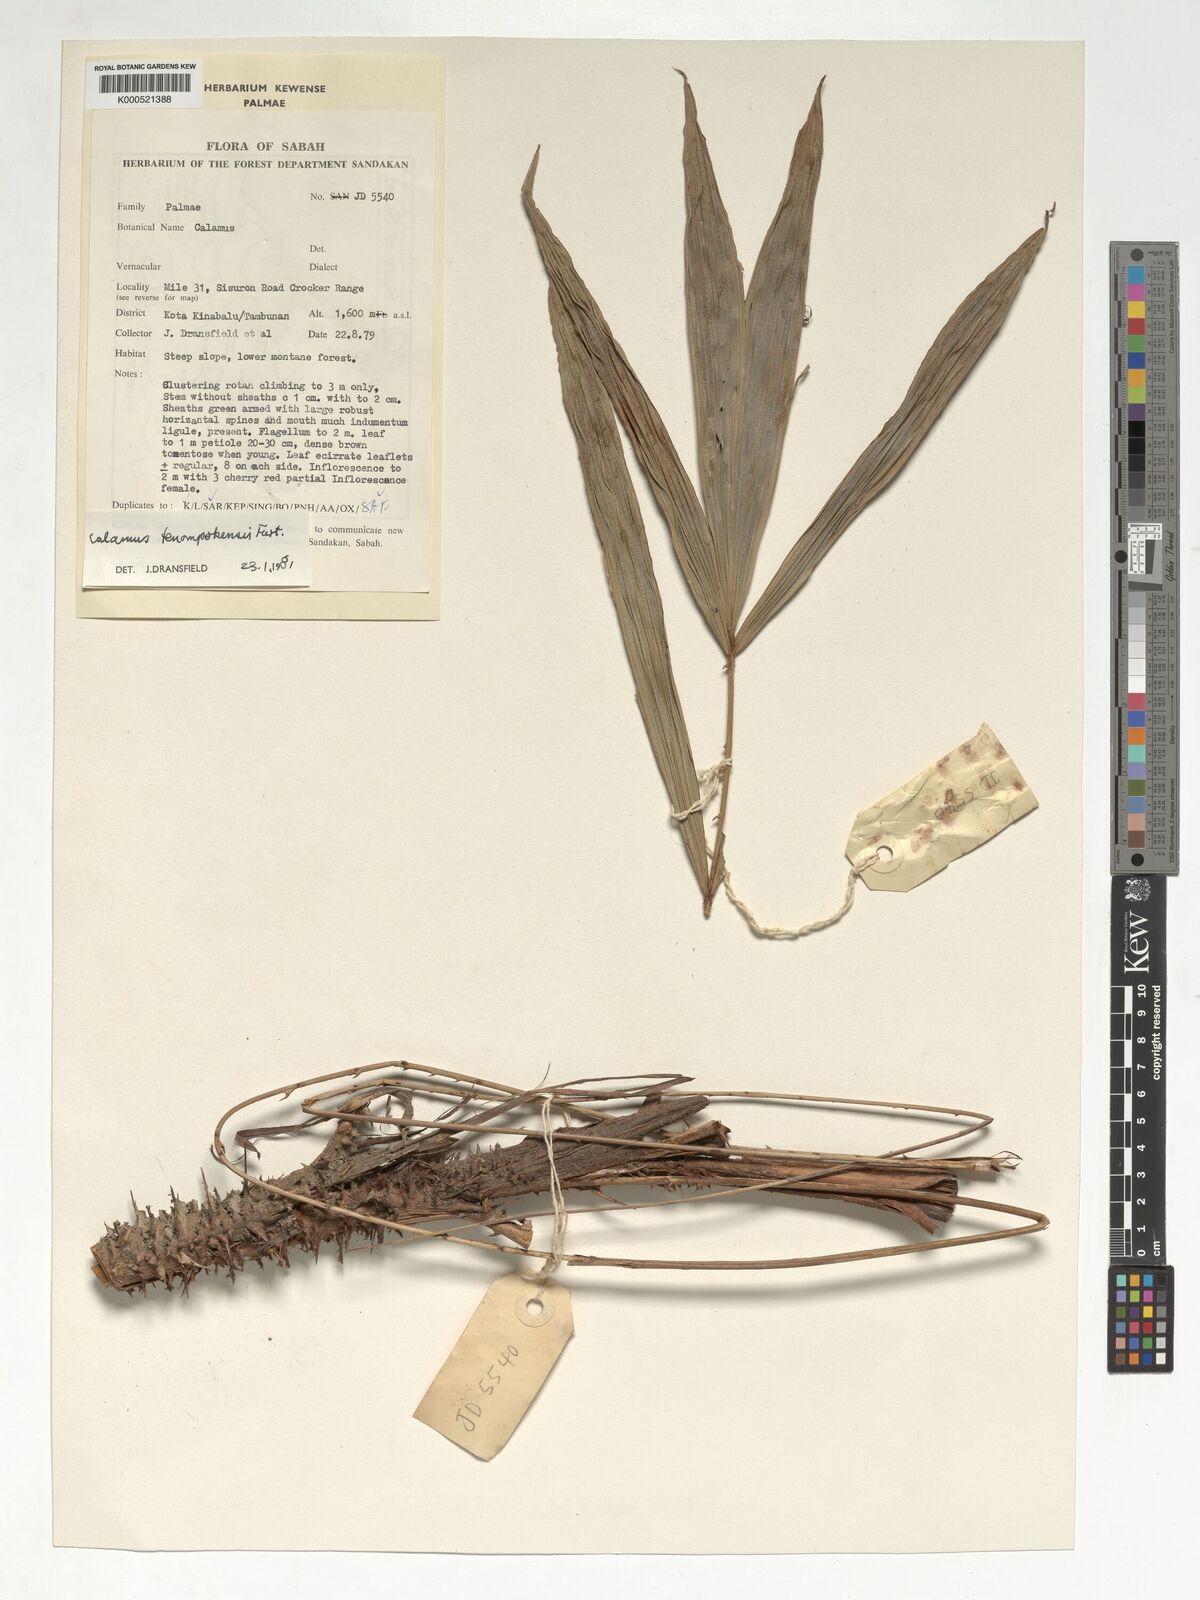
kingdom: Plantae
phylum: Tracheophyta
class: Liliopsida
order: Arecales
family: Arecaceae
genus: Calamus
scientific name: Calamus tenompokensis
